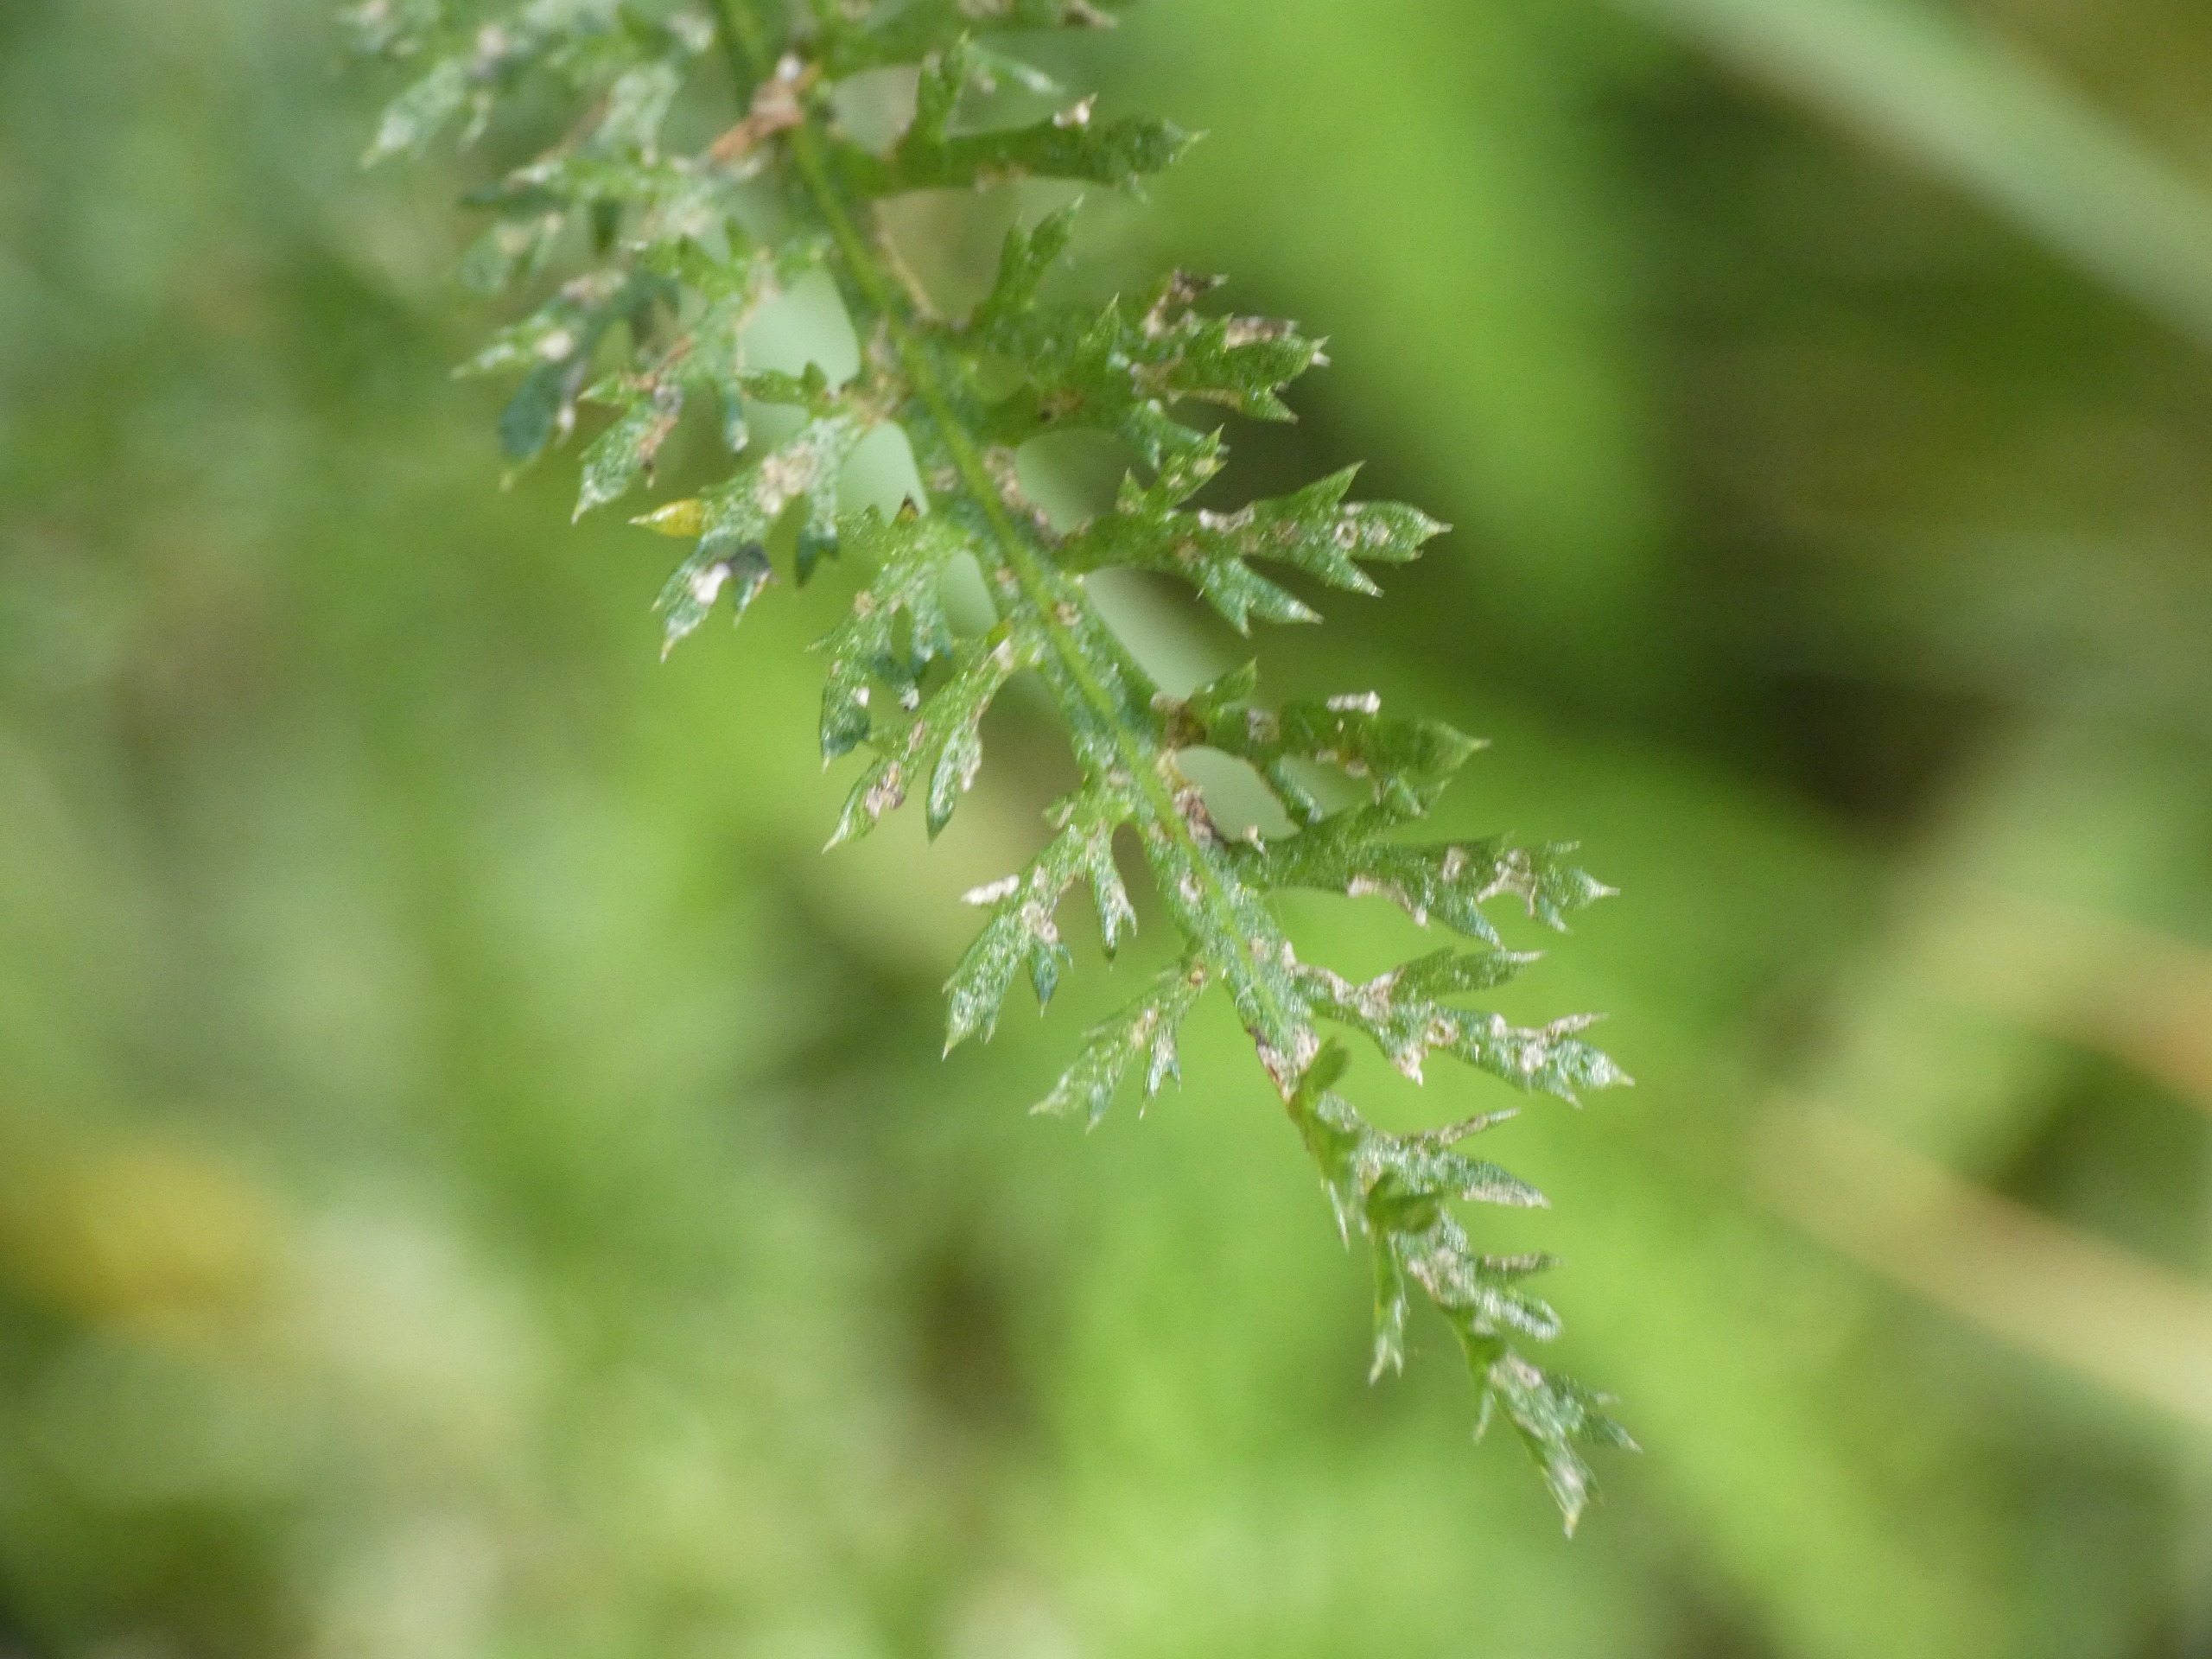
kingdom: Plantae
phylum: Tracheophyta
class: Magnoliopsida
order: Asterales
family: Asteraceae
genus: Achillea
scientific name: Achillea millefolium
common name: Almindelig røllike
